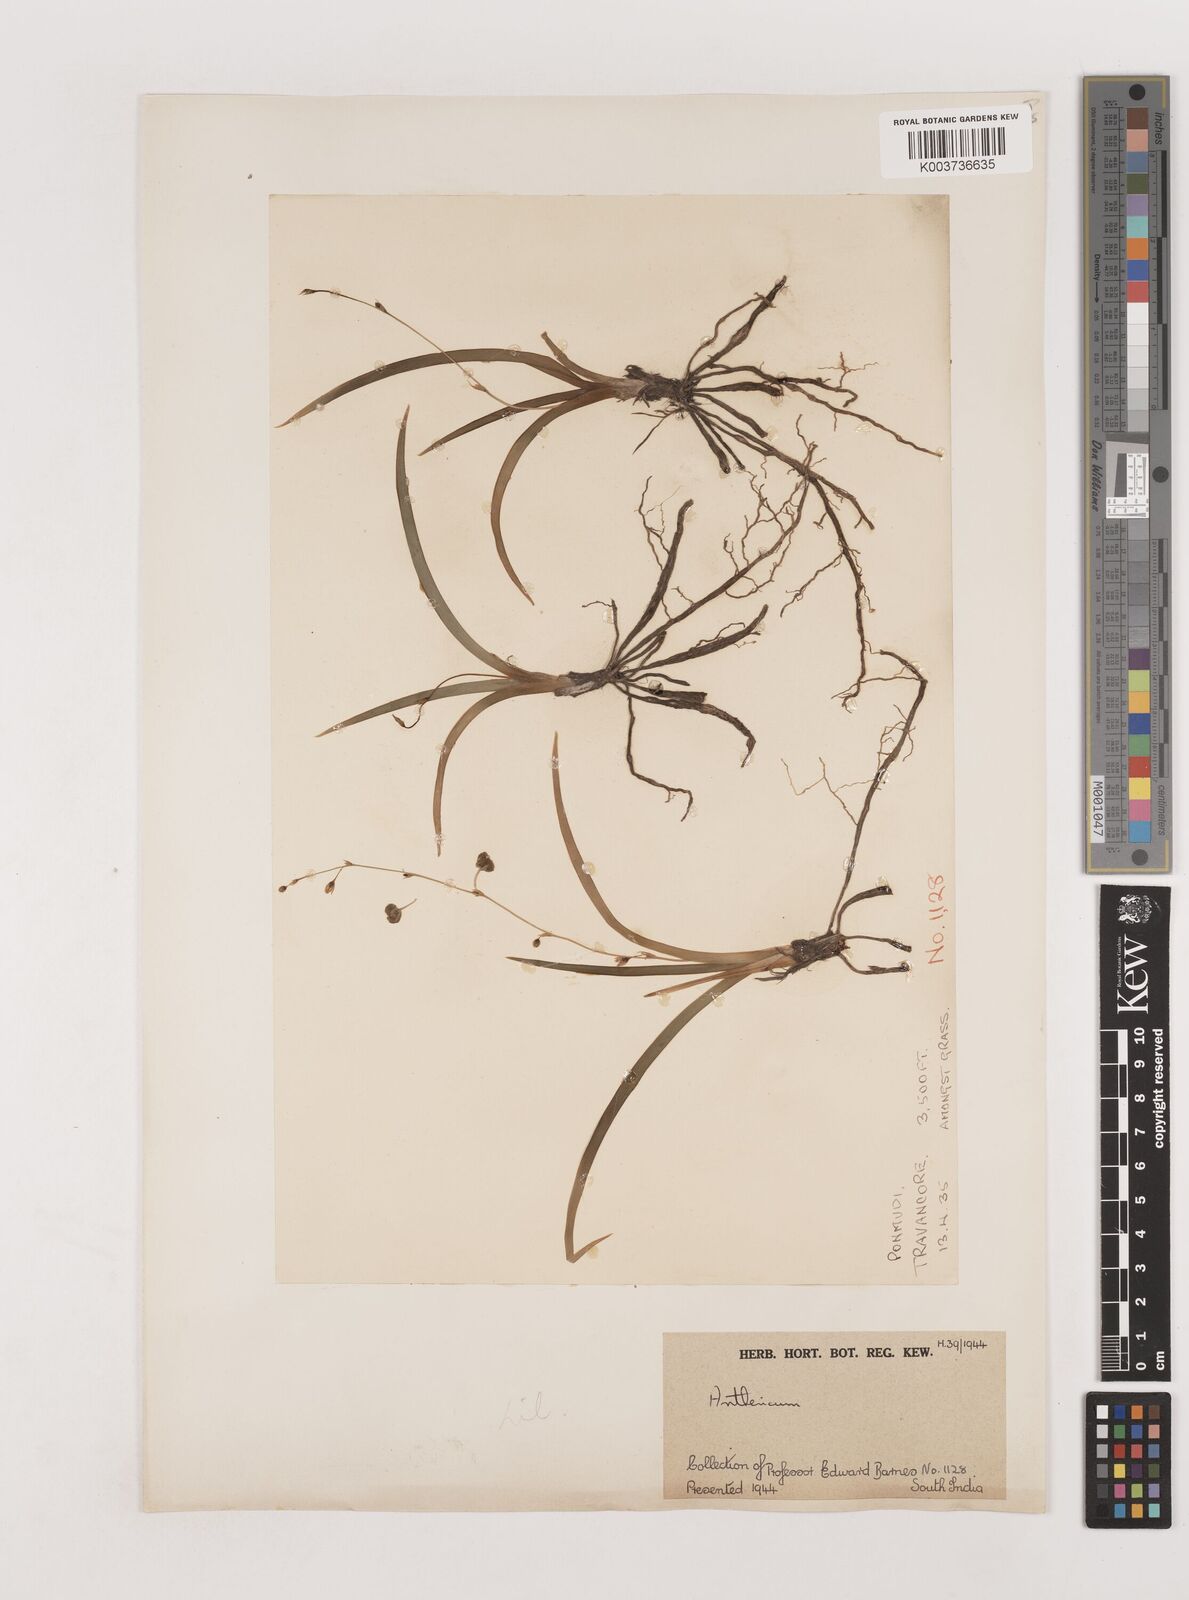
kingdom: Plantae
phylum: Tracheophyta
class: Liliopsida
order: Asparagales
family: Asparagaceae
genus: Chlorophytum
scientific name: Chlorophytum laxum
